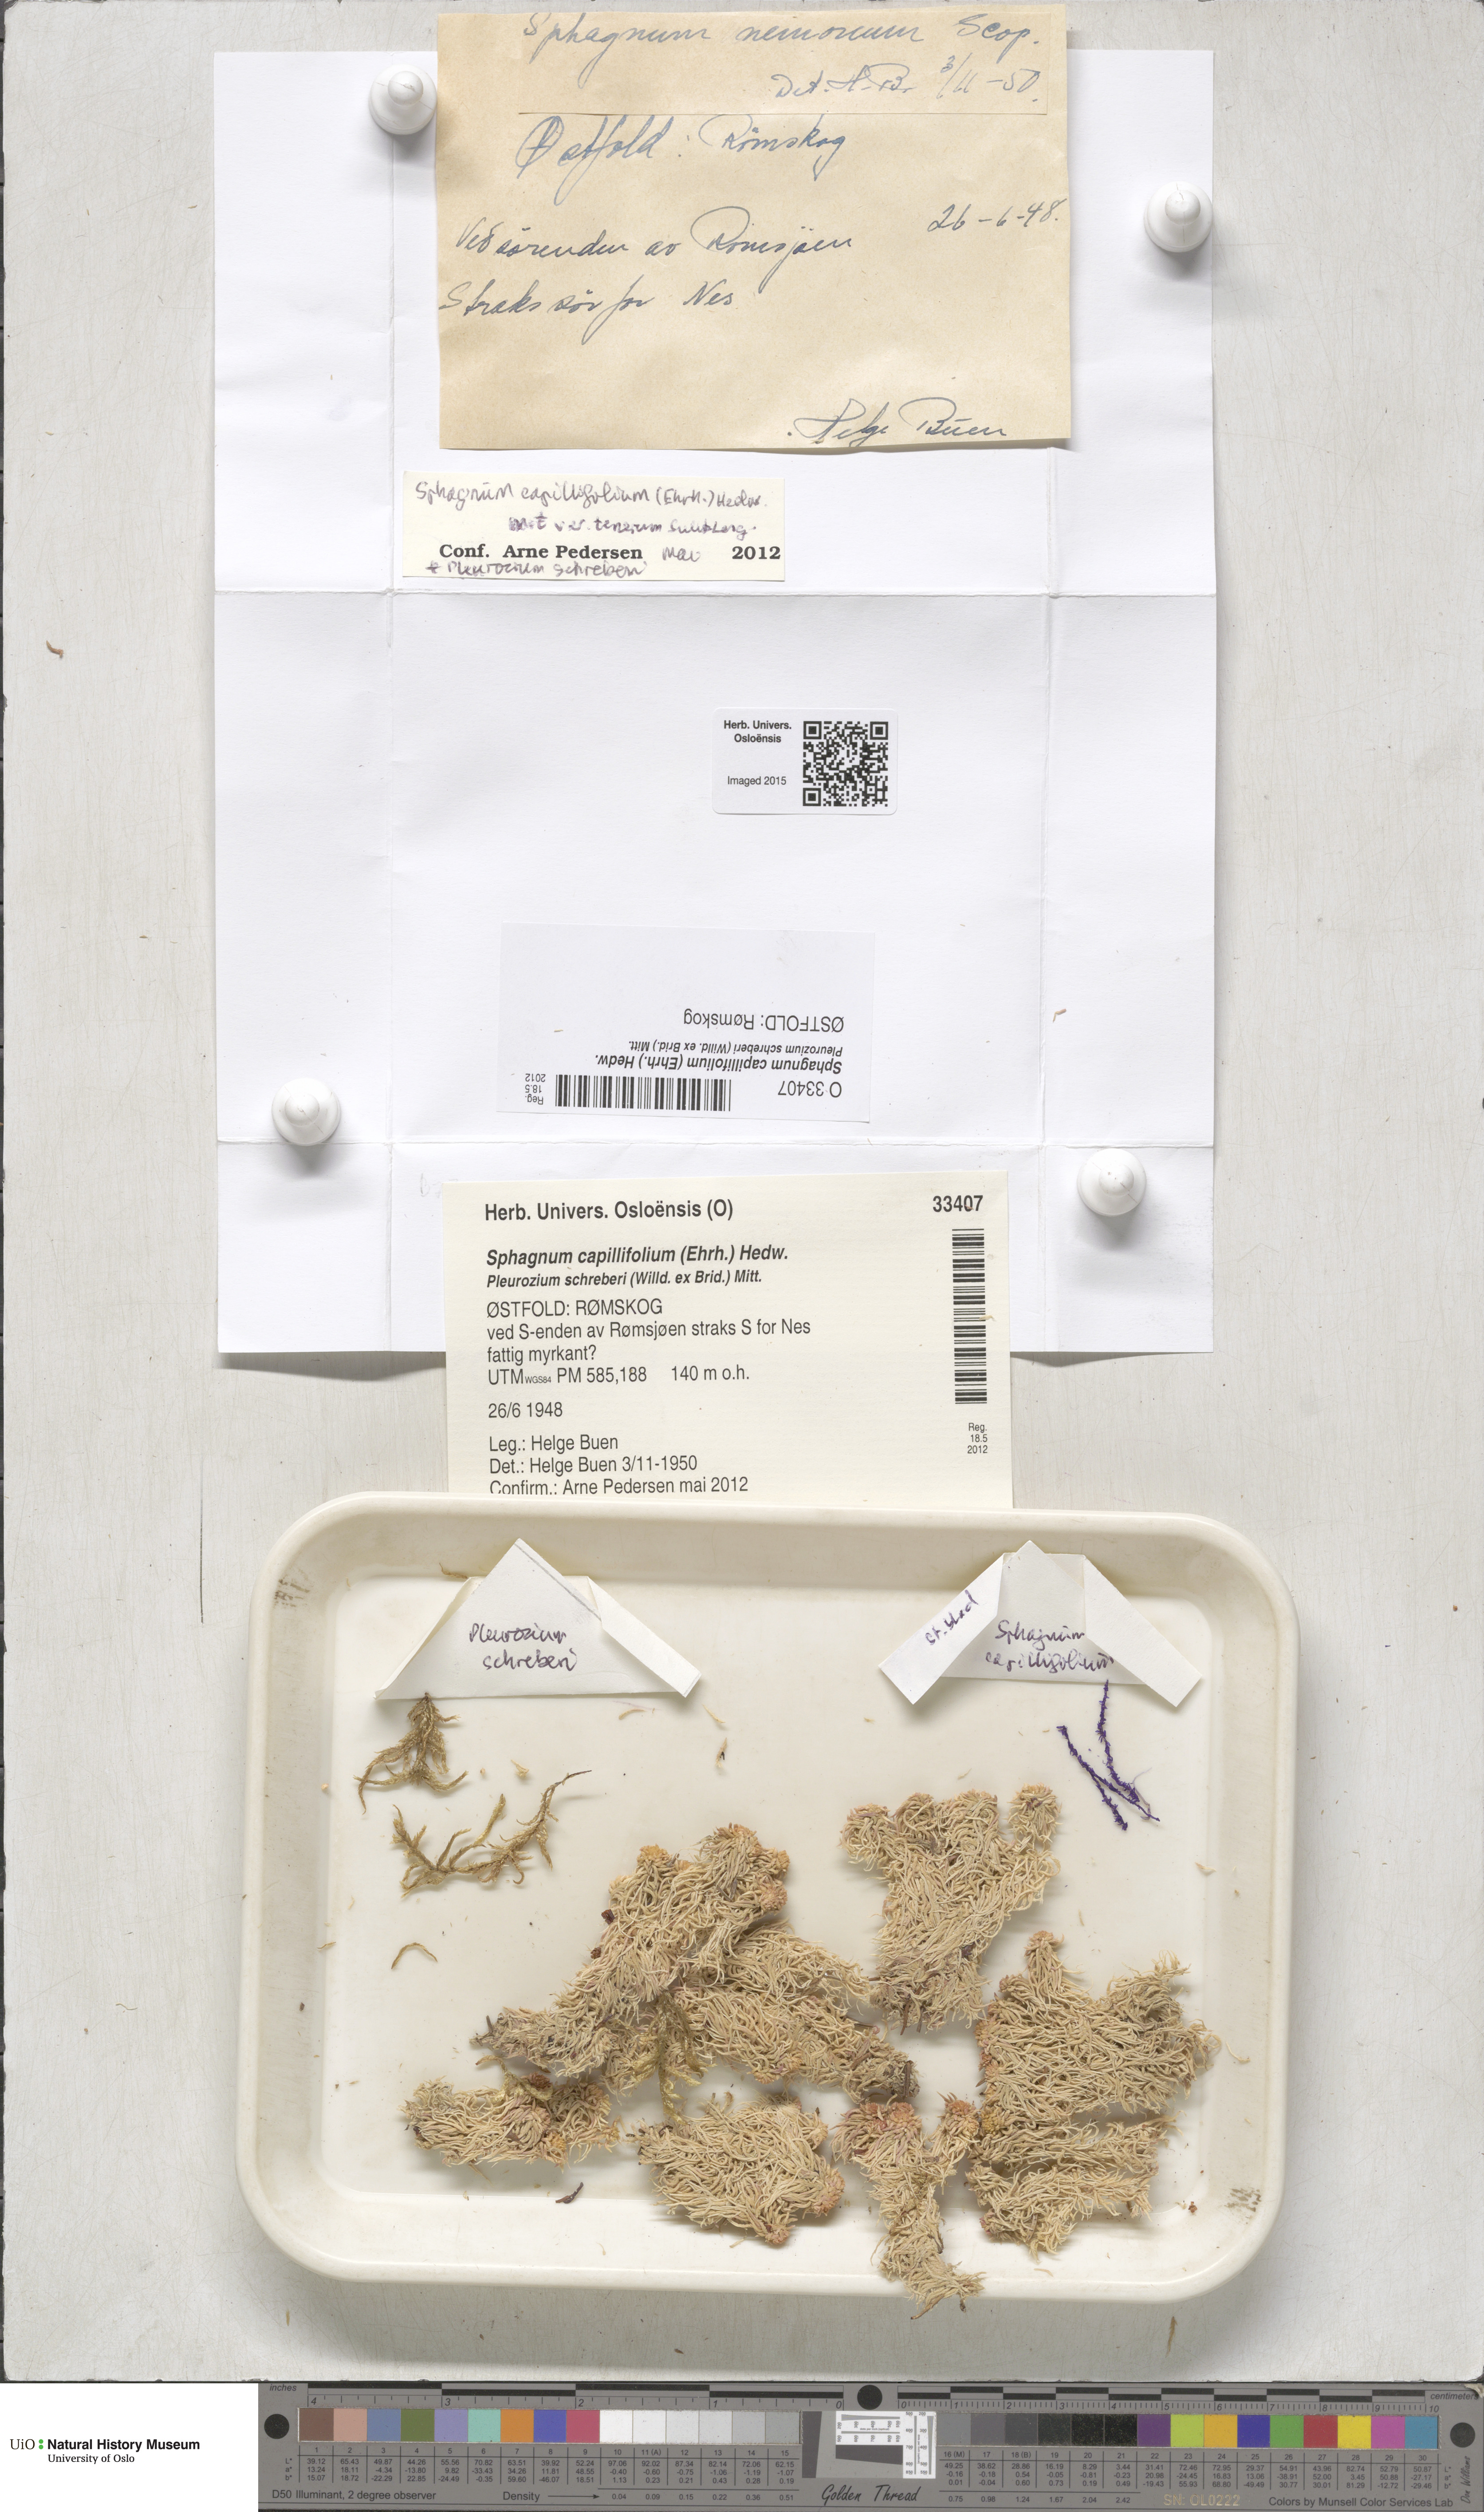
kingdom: Plantae
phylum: Bryophyta
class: Sphagnopsida
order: Sphagnales
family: Sphagnaceae
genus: Sphagnum
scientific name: Sphagnum capillifolium
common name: Small red peat moss
